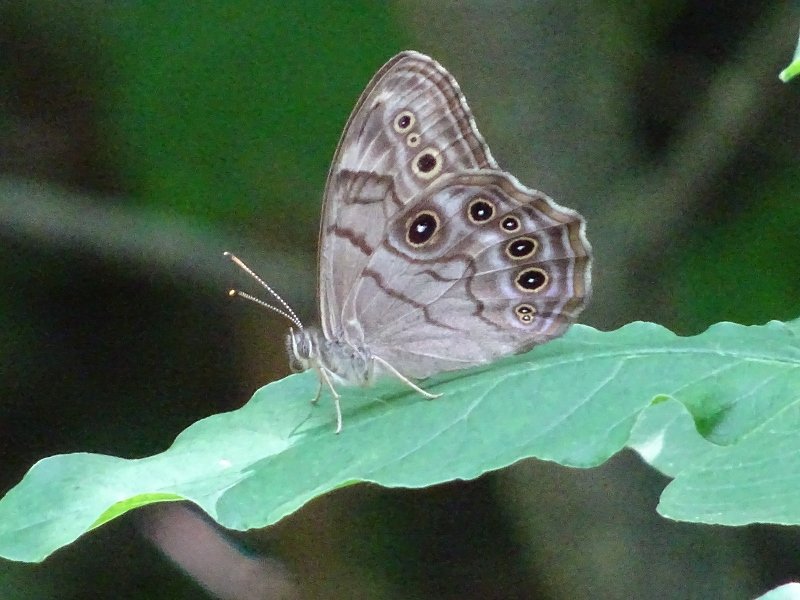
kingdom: Animalia
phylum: Arthropoda
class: Insecta
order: Lepidoptera
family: Nymphalidae
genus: Lethe
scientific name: Lethe anthedon
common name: Northern Pearly-Eye
